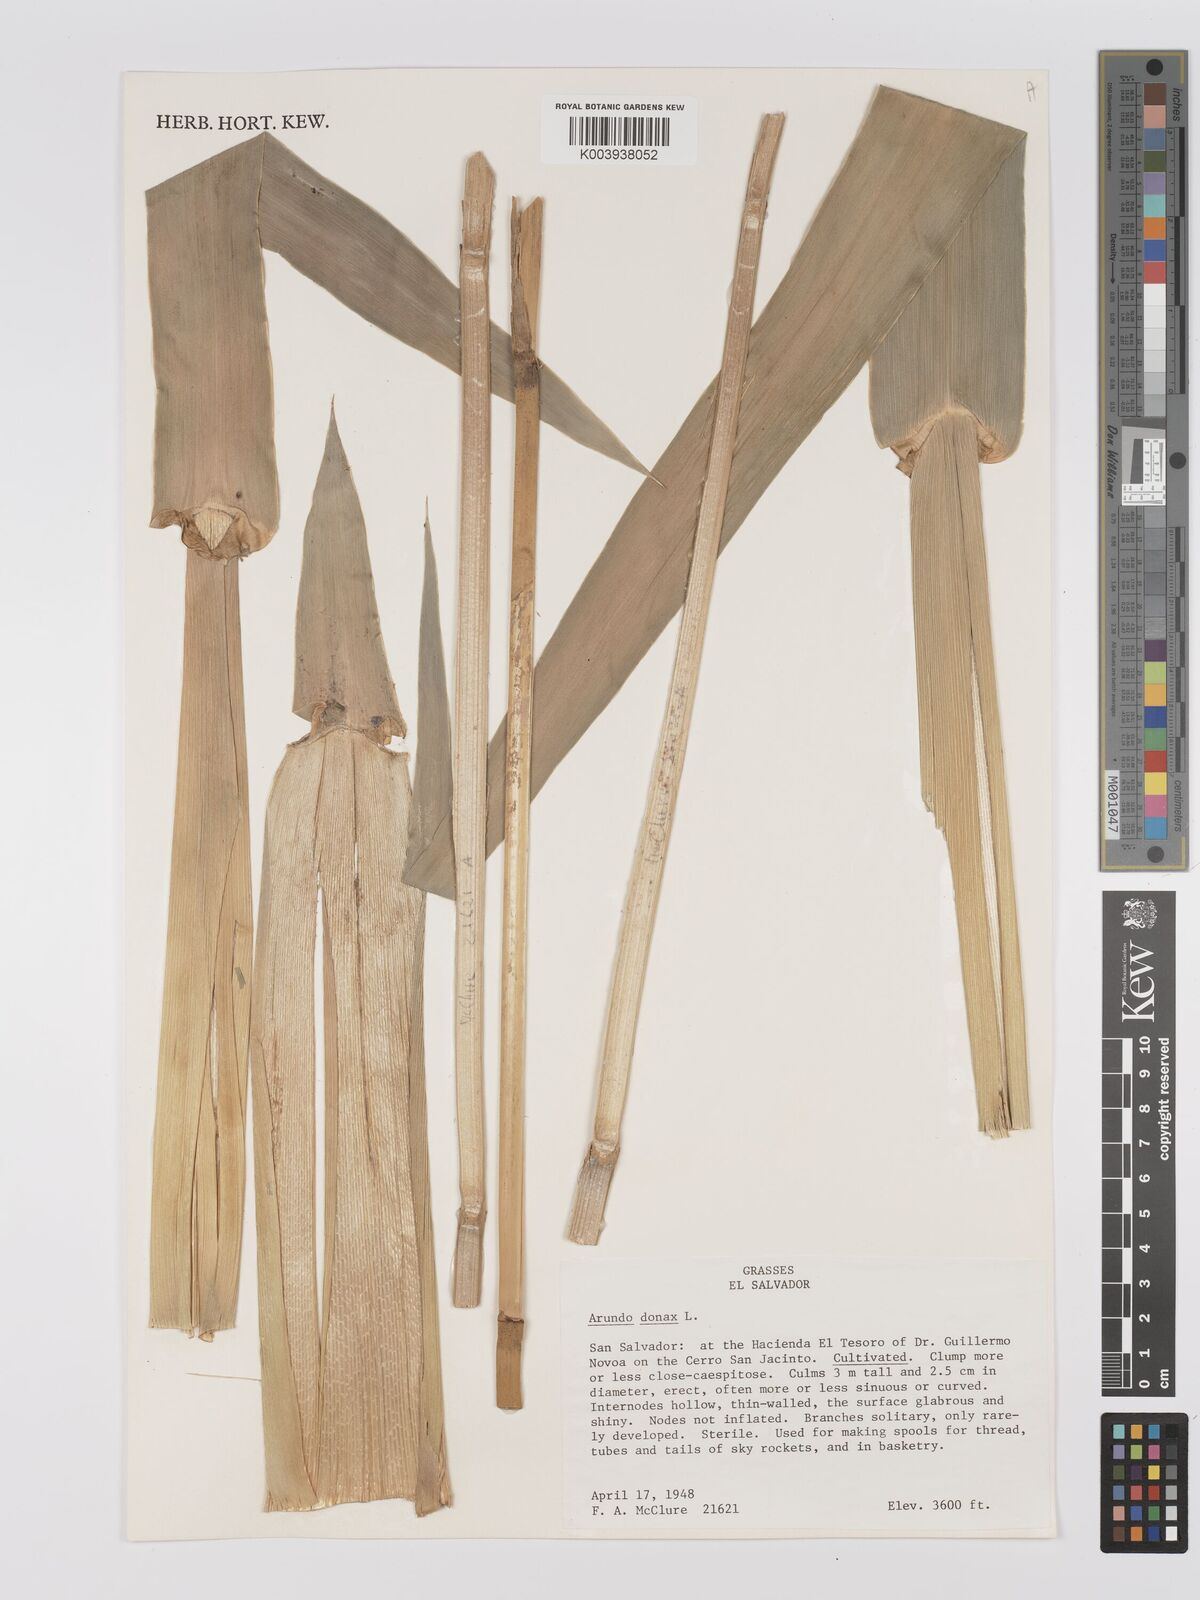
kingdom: Plantae
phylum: Tracheophyta
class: Liliopsida
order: Poales
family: Poaceae
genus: Arundo
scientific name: Arundo donax
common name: Giant reed
